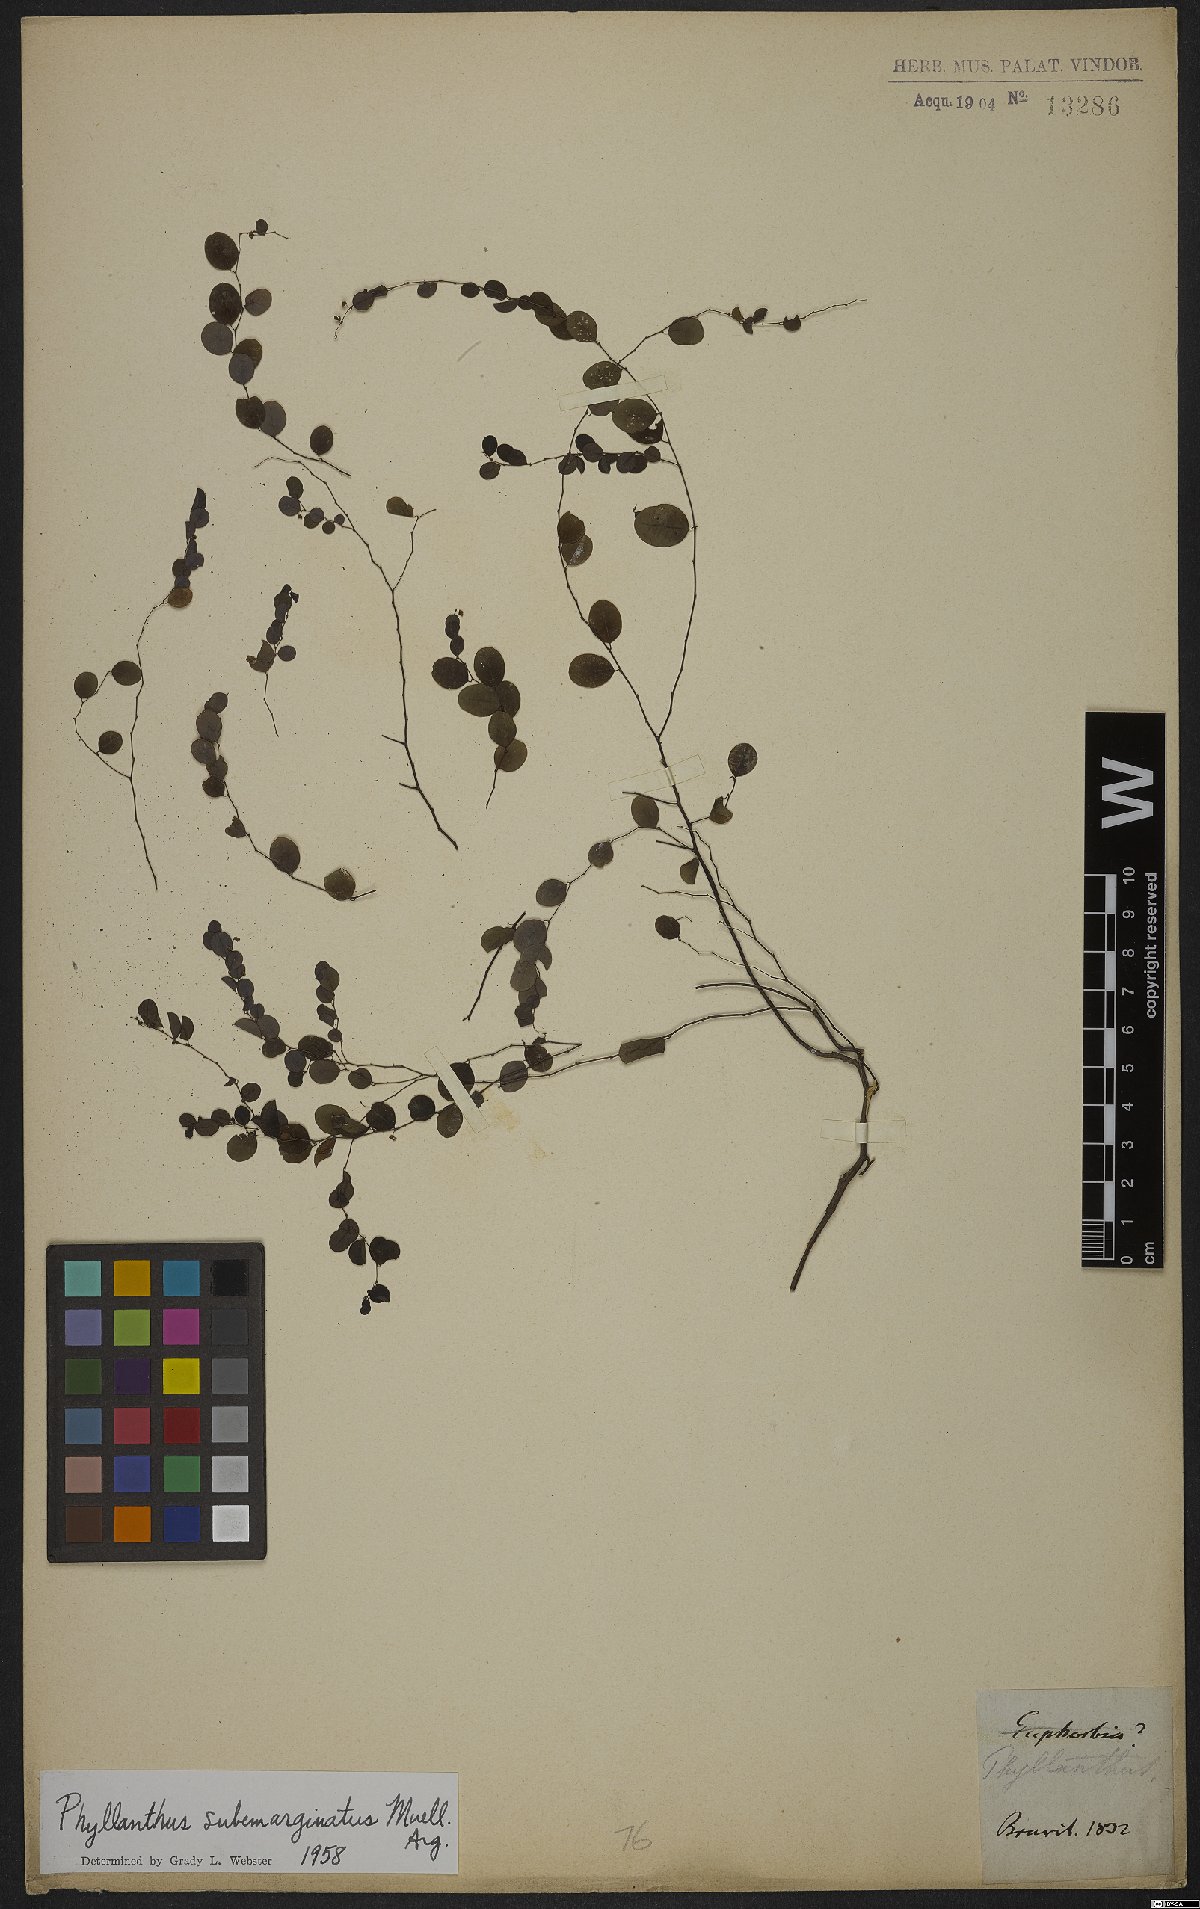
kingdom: Plantae
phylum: Tracheophyta
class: Magnoliopsida
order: Malpighiales
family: Phyllanthaceae
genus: Phyllanthus
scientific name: Phyllanthus subemarginatus
